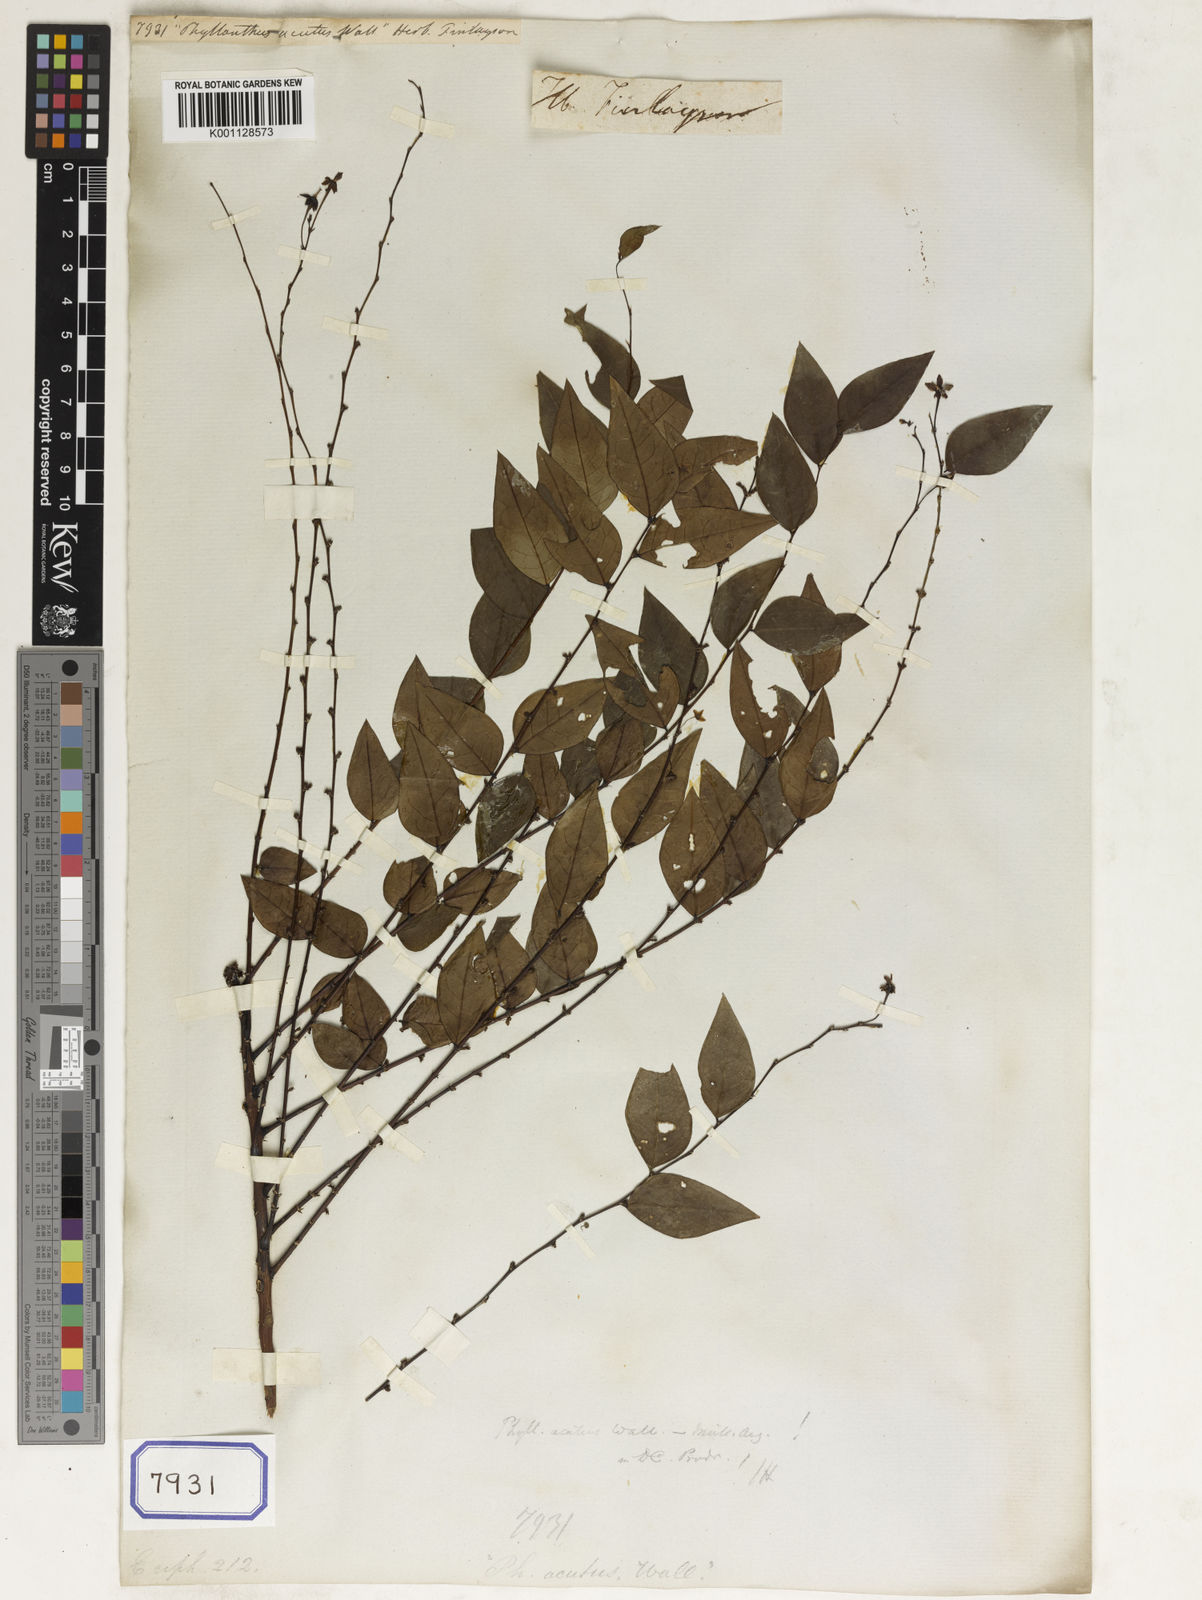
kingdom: Plantae
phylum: Tracheophyta
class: Magnoliopsida
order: Malpighiales
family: Euphorbiaceae
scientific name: Euphorbiaceae
